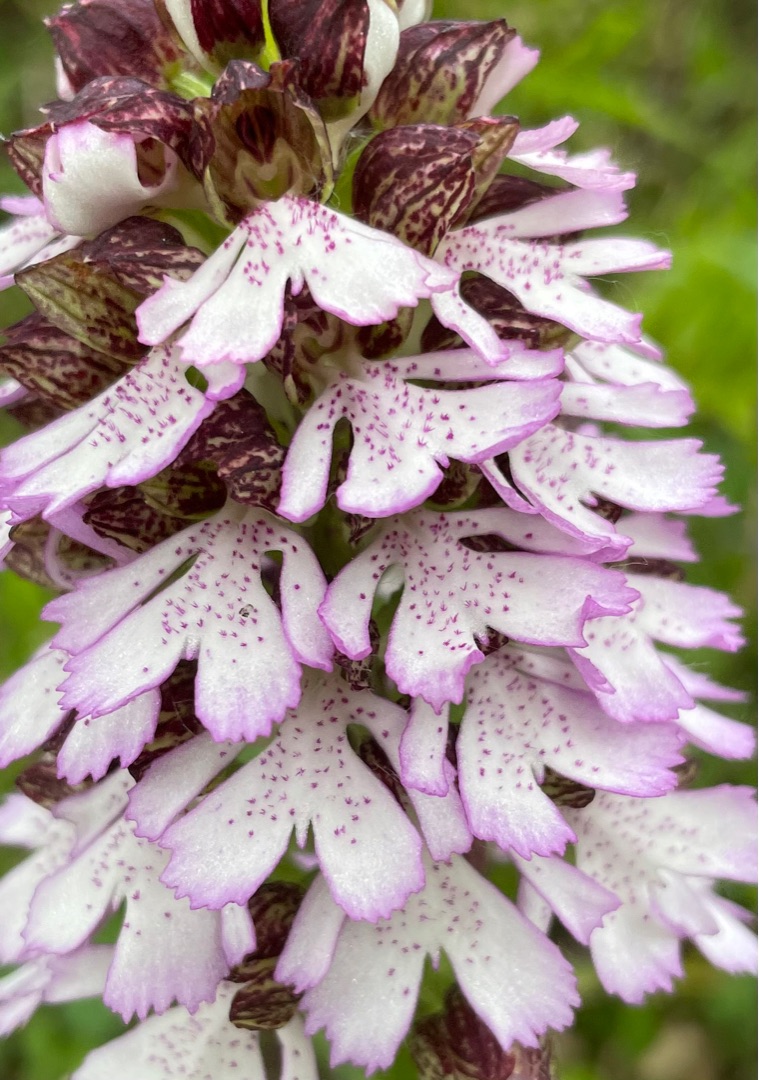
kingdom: Plantae
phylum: Tracheophyta
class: Liliopsida
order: Asparagales
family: Orchidaceae
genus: Orchis
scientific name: Orchis purpurea
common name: Stor gøgeurt
